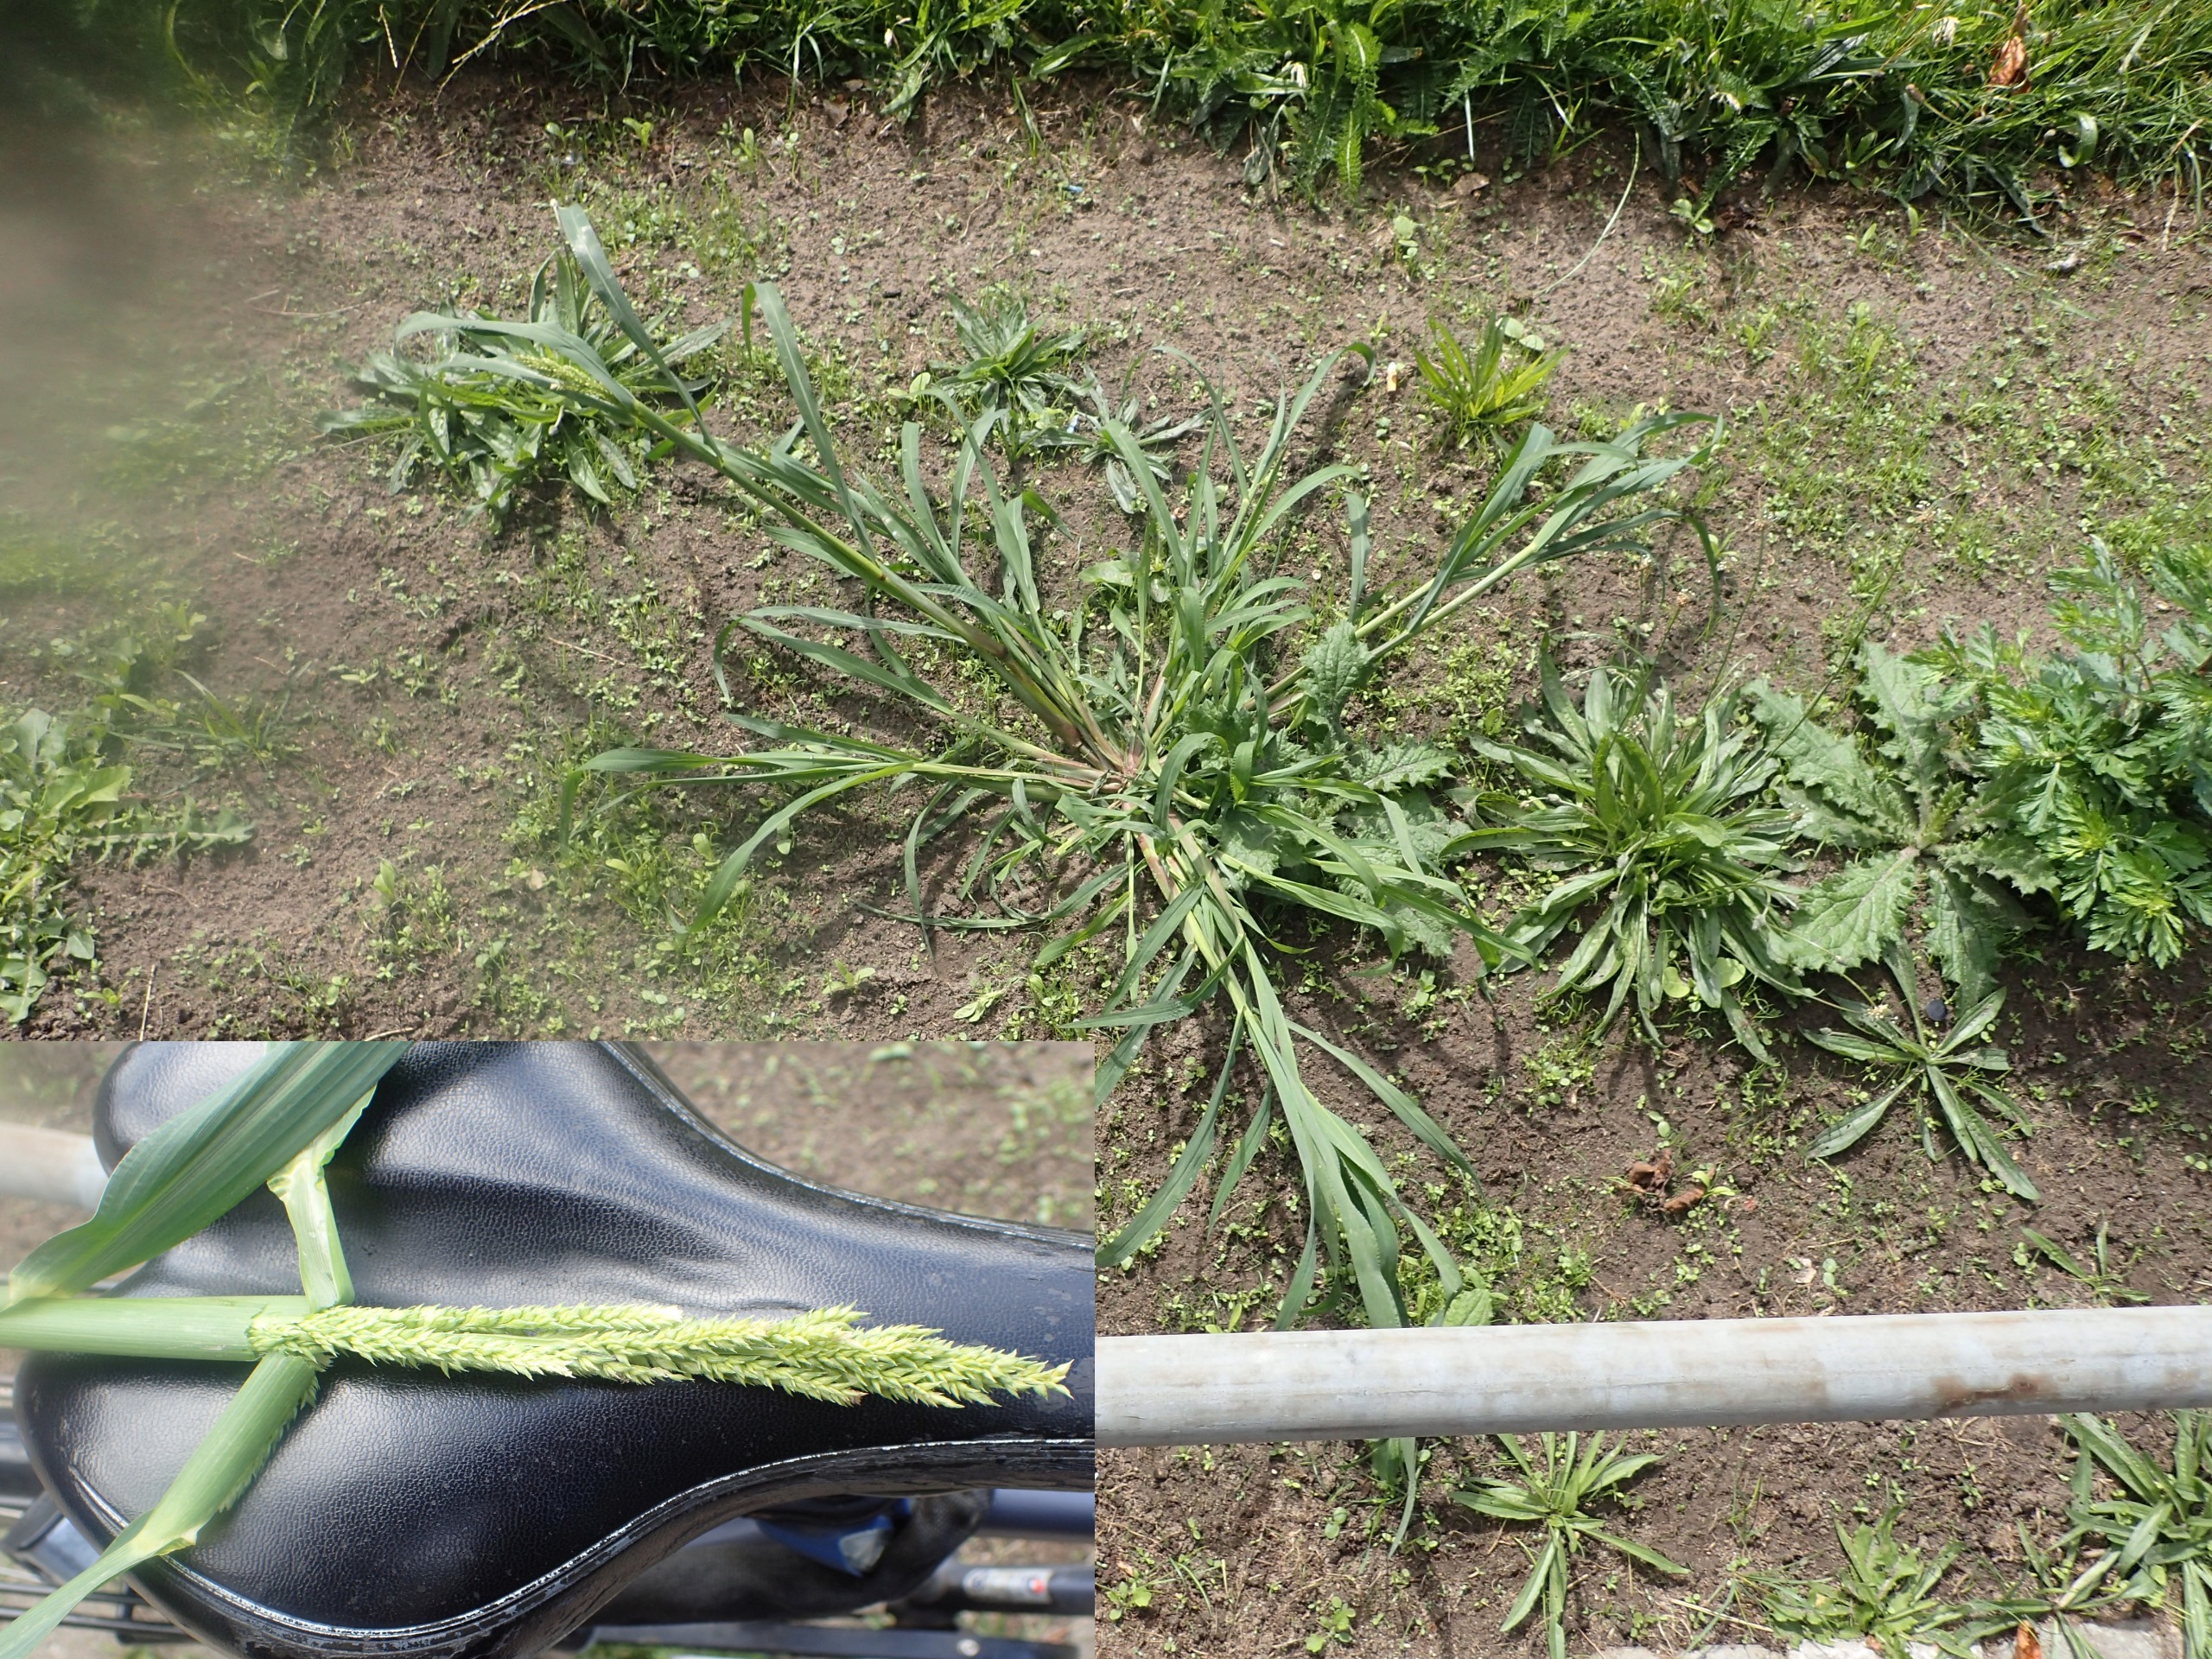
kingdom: Plantae
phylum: Tracheophyta
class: Liliopsida
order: Poales
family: Poaceae
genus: Echinochloa
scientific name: Echinochloa crus-galli
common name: Almindelig hanespore
